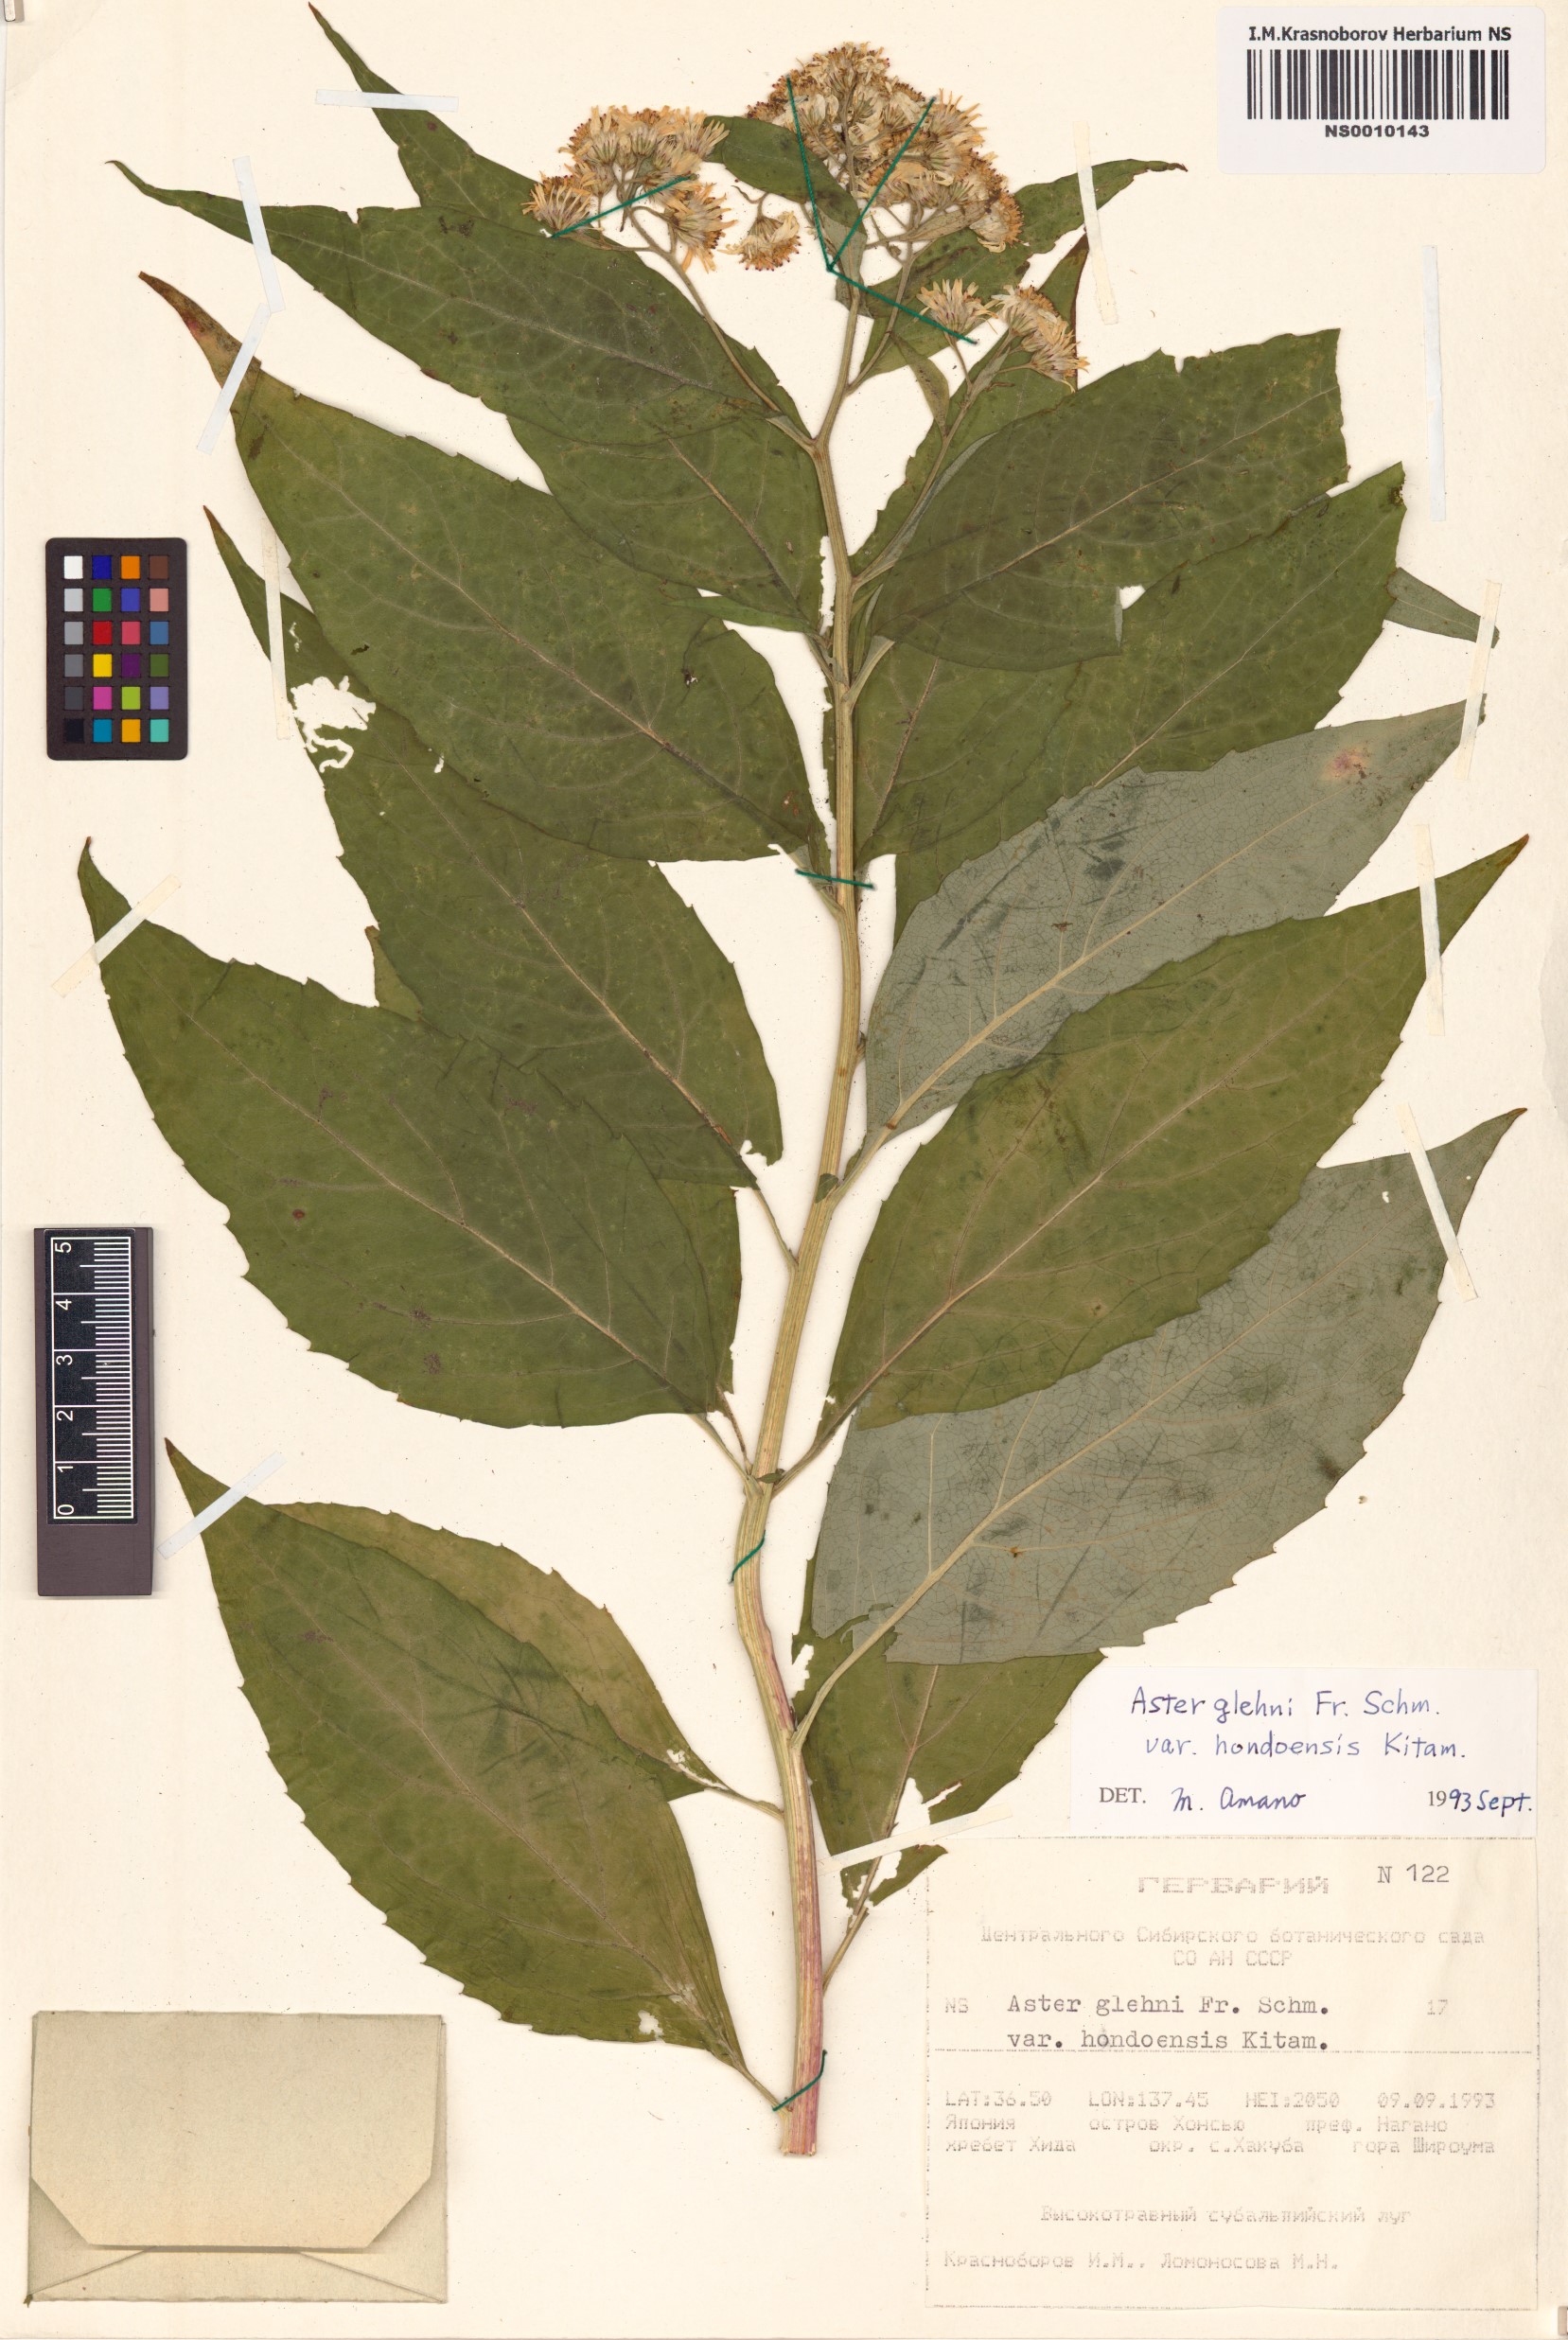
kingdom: Plantae
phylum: Tracheophyta
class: Magnoliopsida
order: Asterales
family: Asteraceae
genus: Kitamuria
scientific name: Kitamuria glehnii
